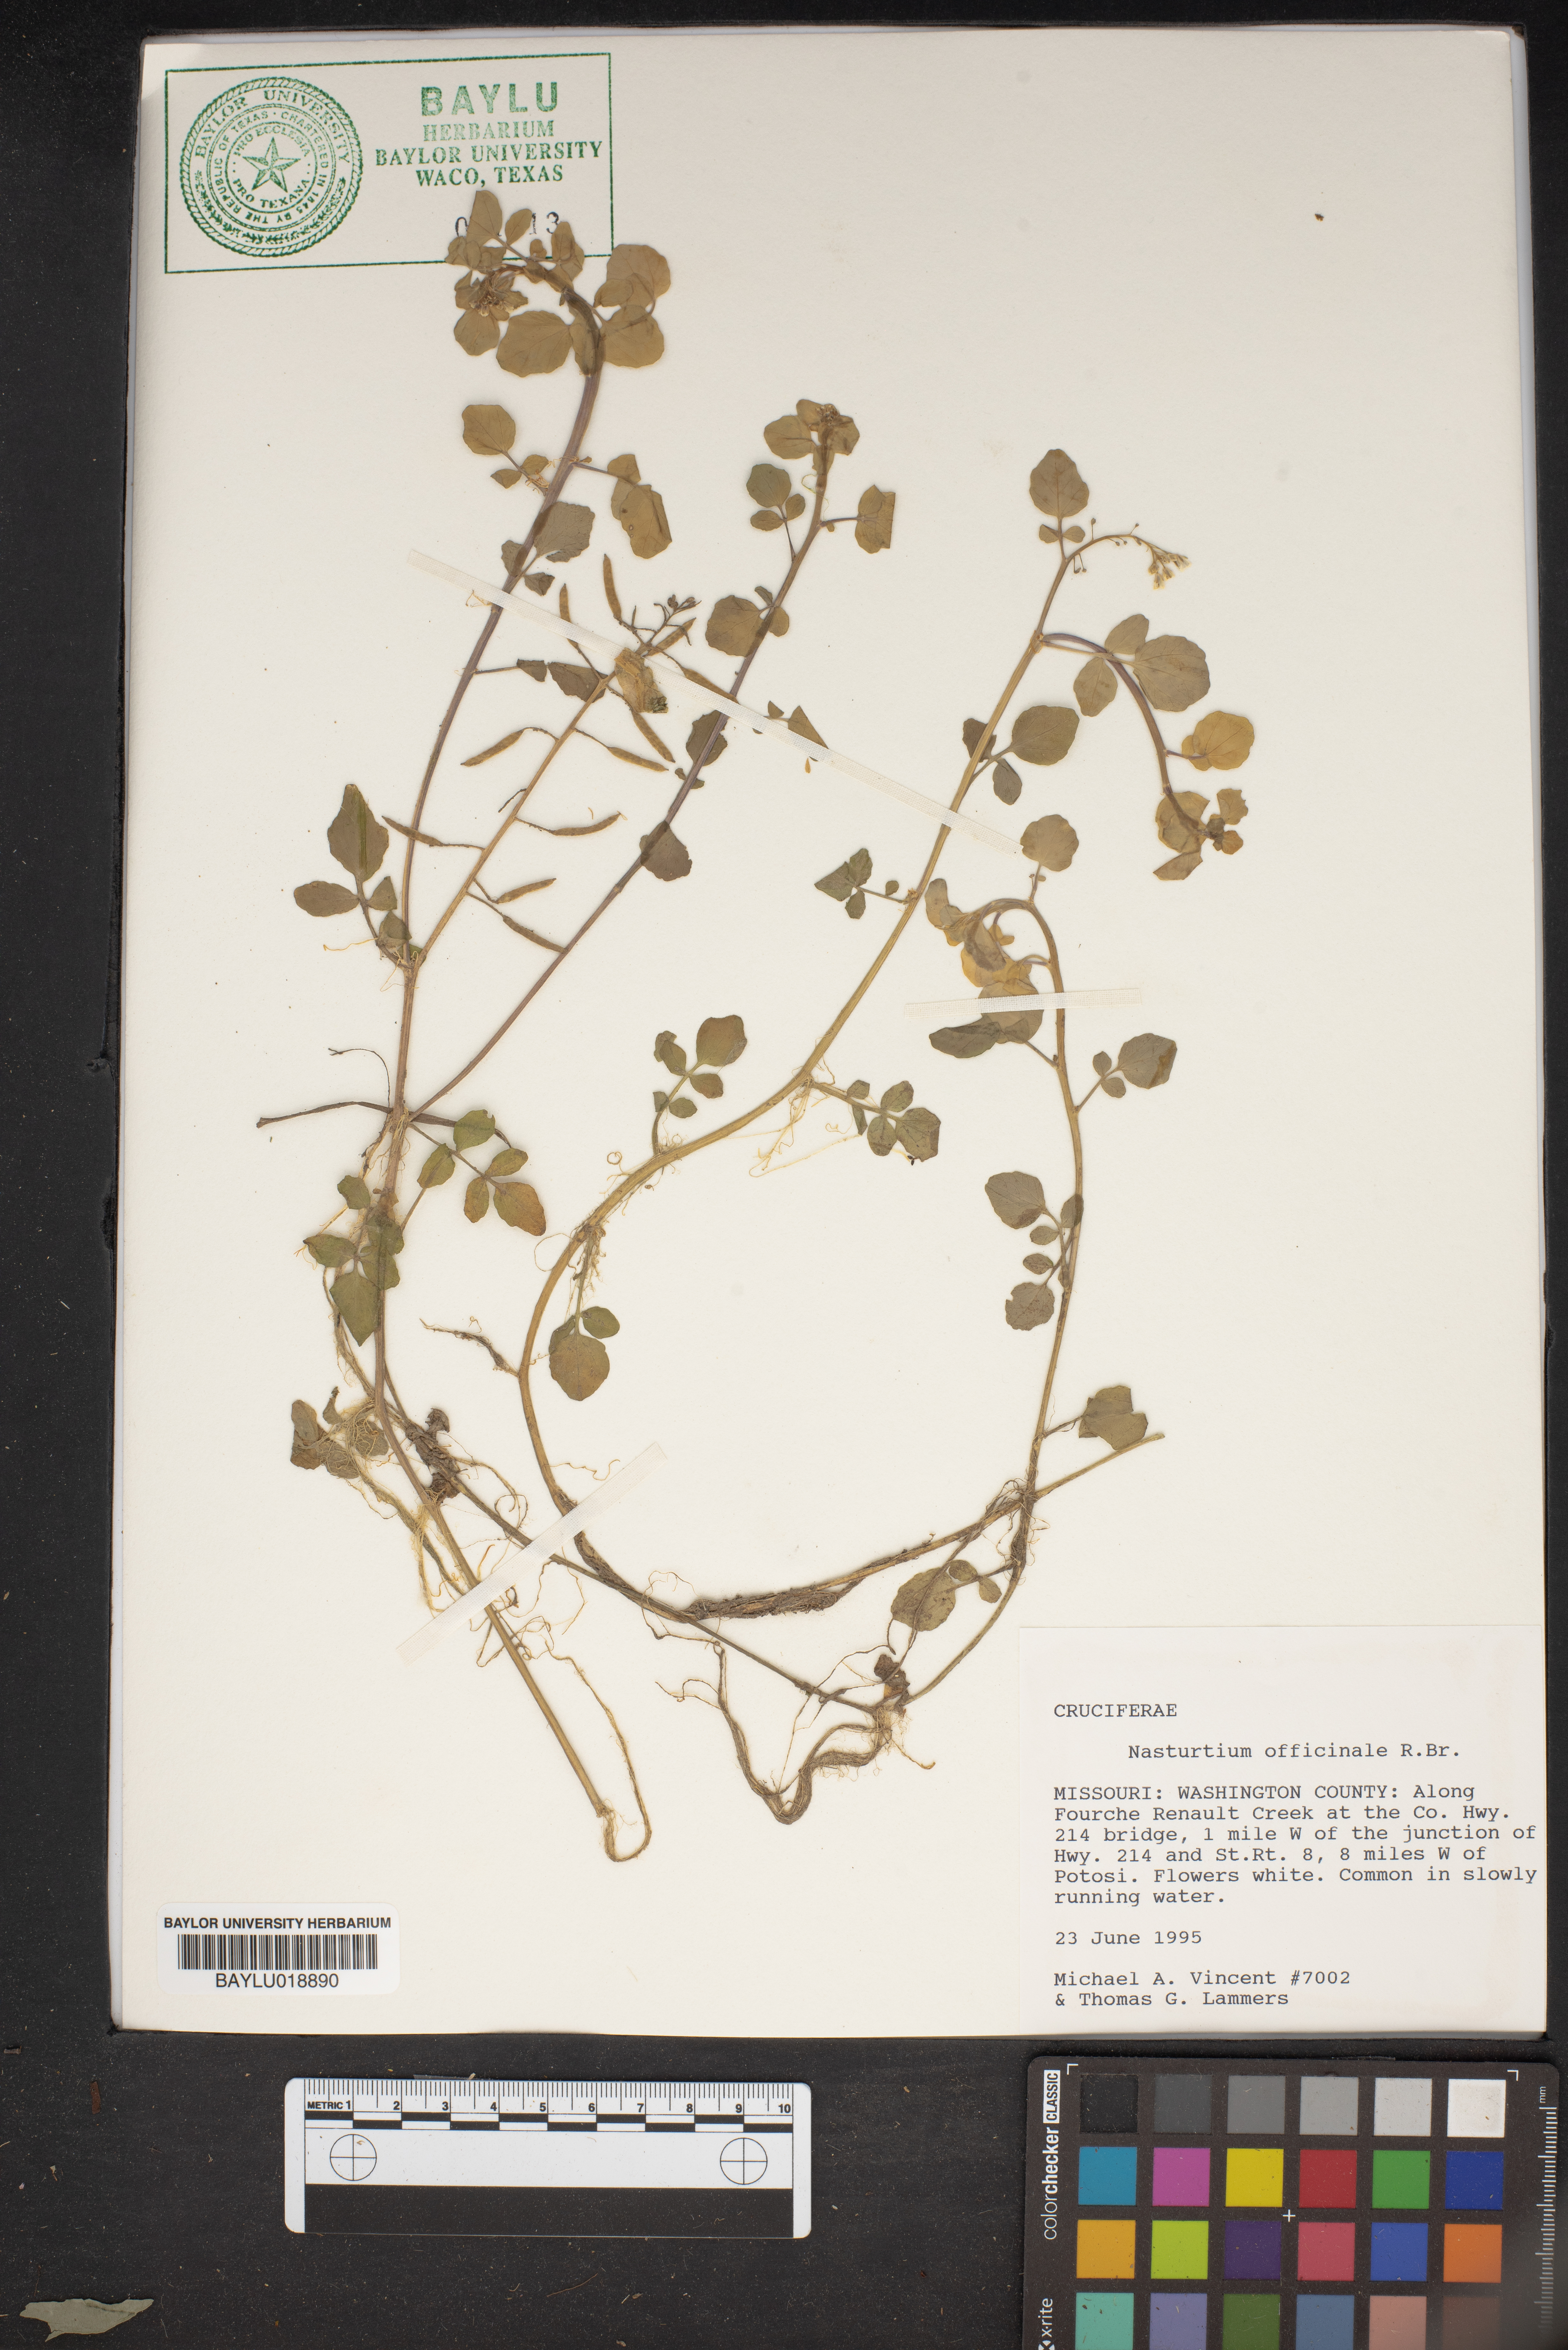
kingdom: Plantae
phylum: Tracheophyta
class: Magnoliopsida
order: Brassicales
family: Brassicaceae
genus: Nasturtium
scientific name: Nasturtium officinale
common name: Watercress
